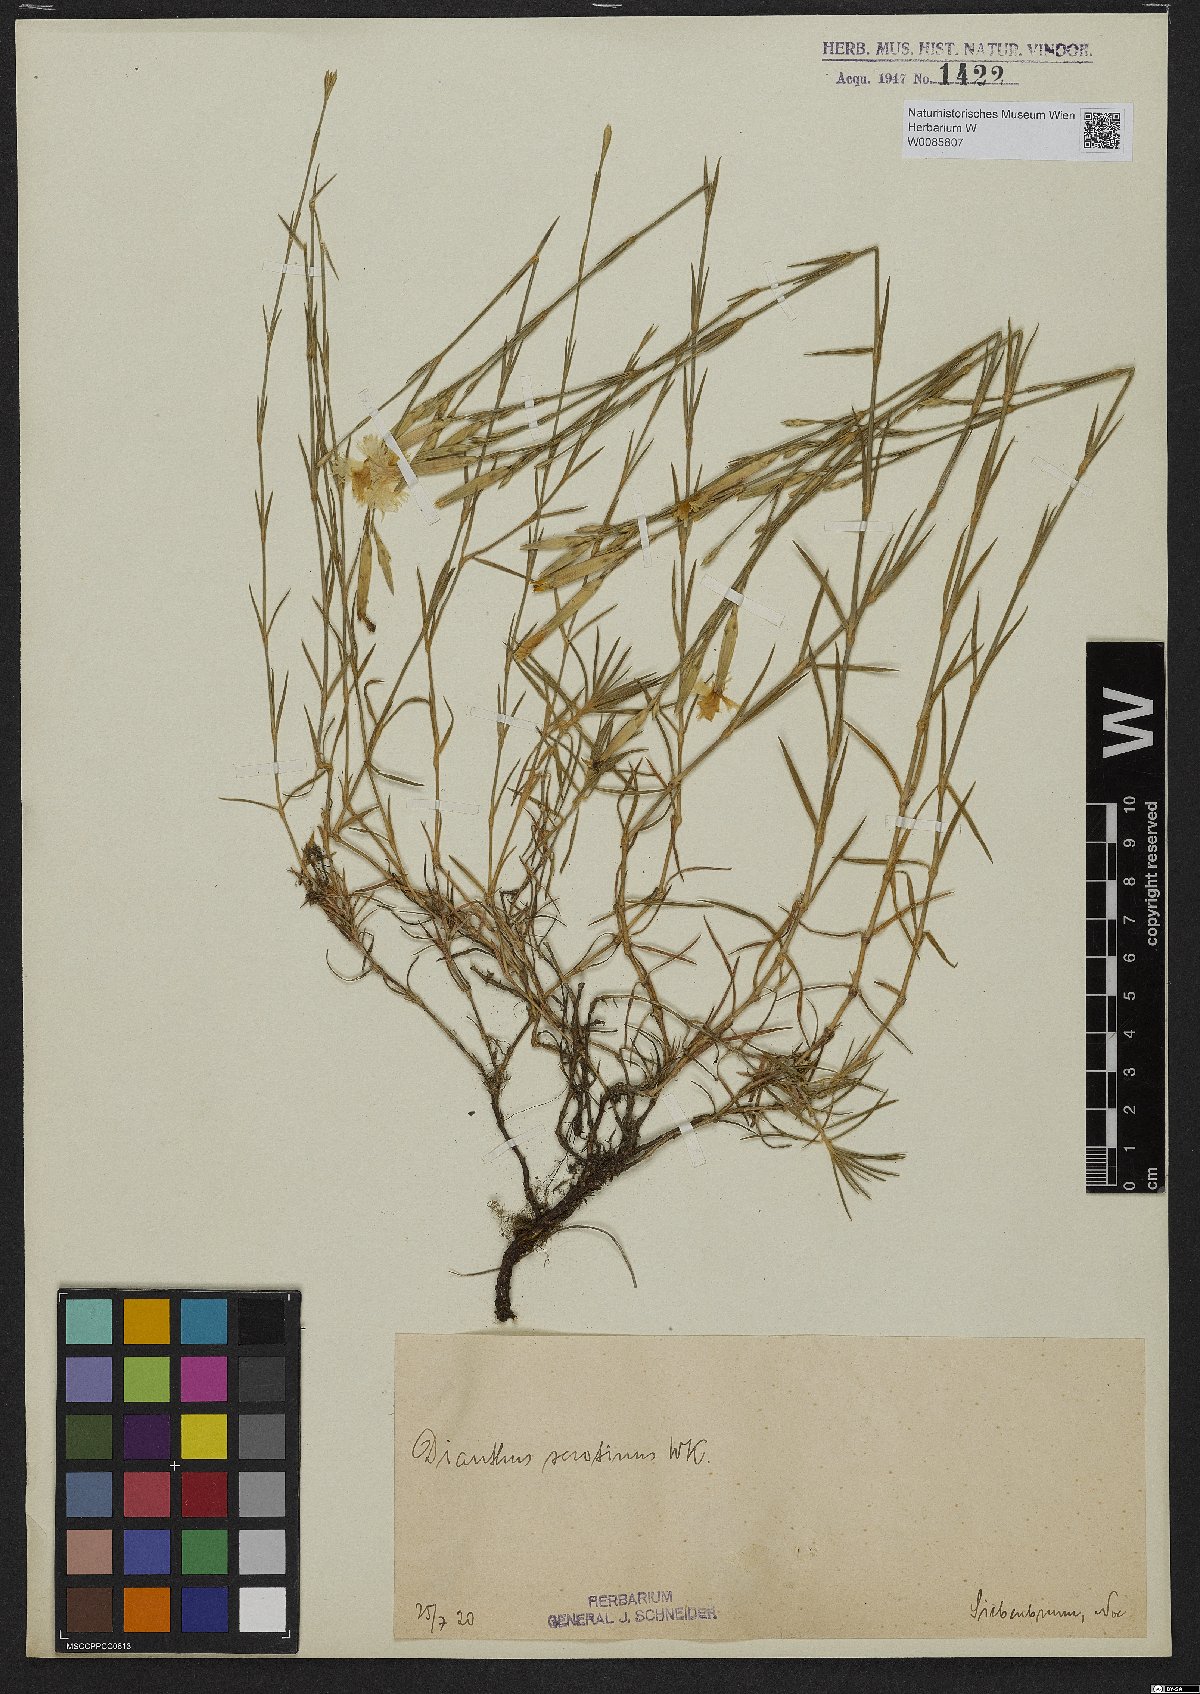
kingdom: Plantae
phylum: Tracheophyta
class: Magnoliopsida
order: Caryophyllales
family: Caryophyllaceae
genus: Dianthus
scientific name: Dianthus serotinus
